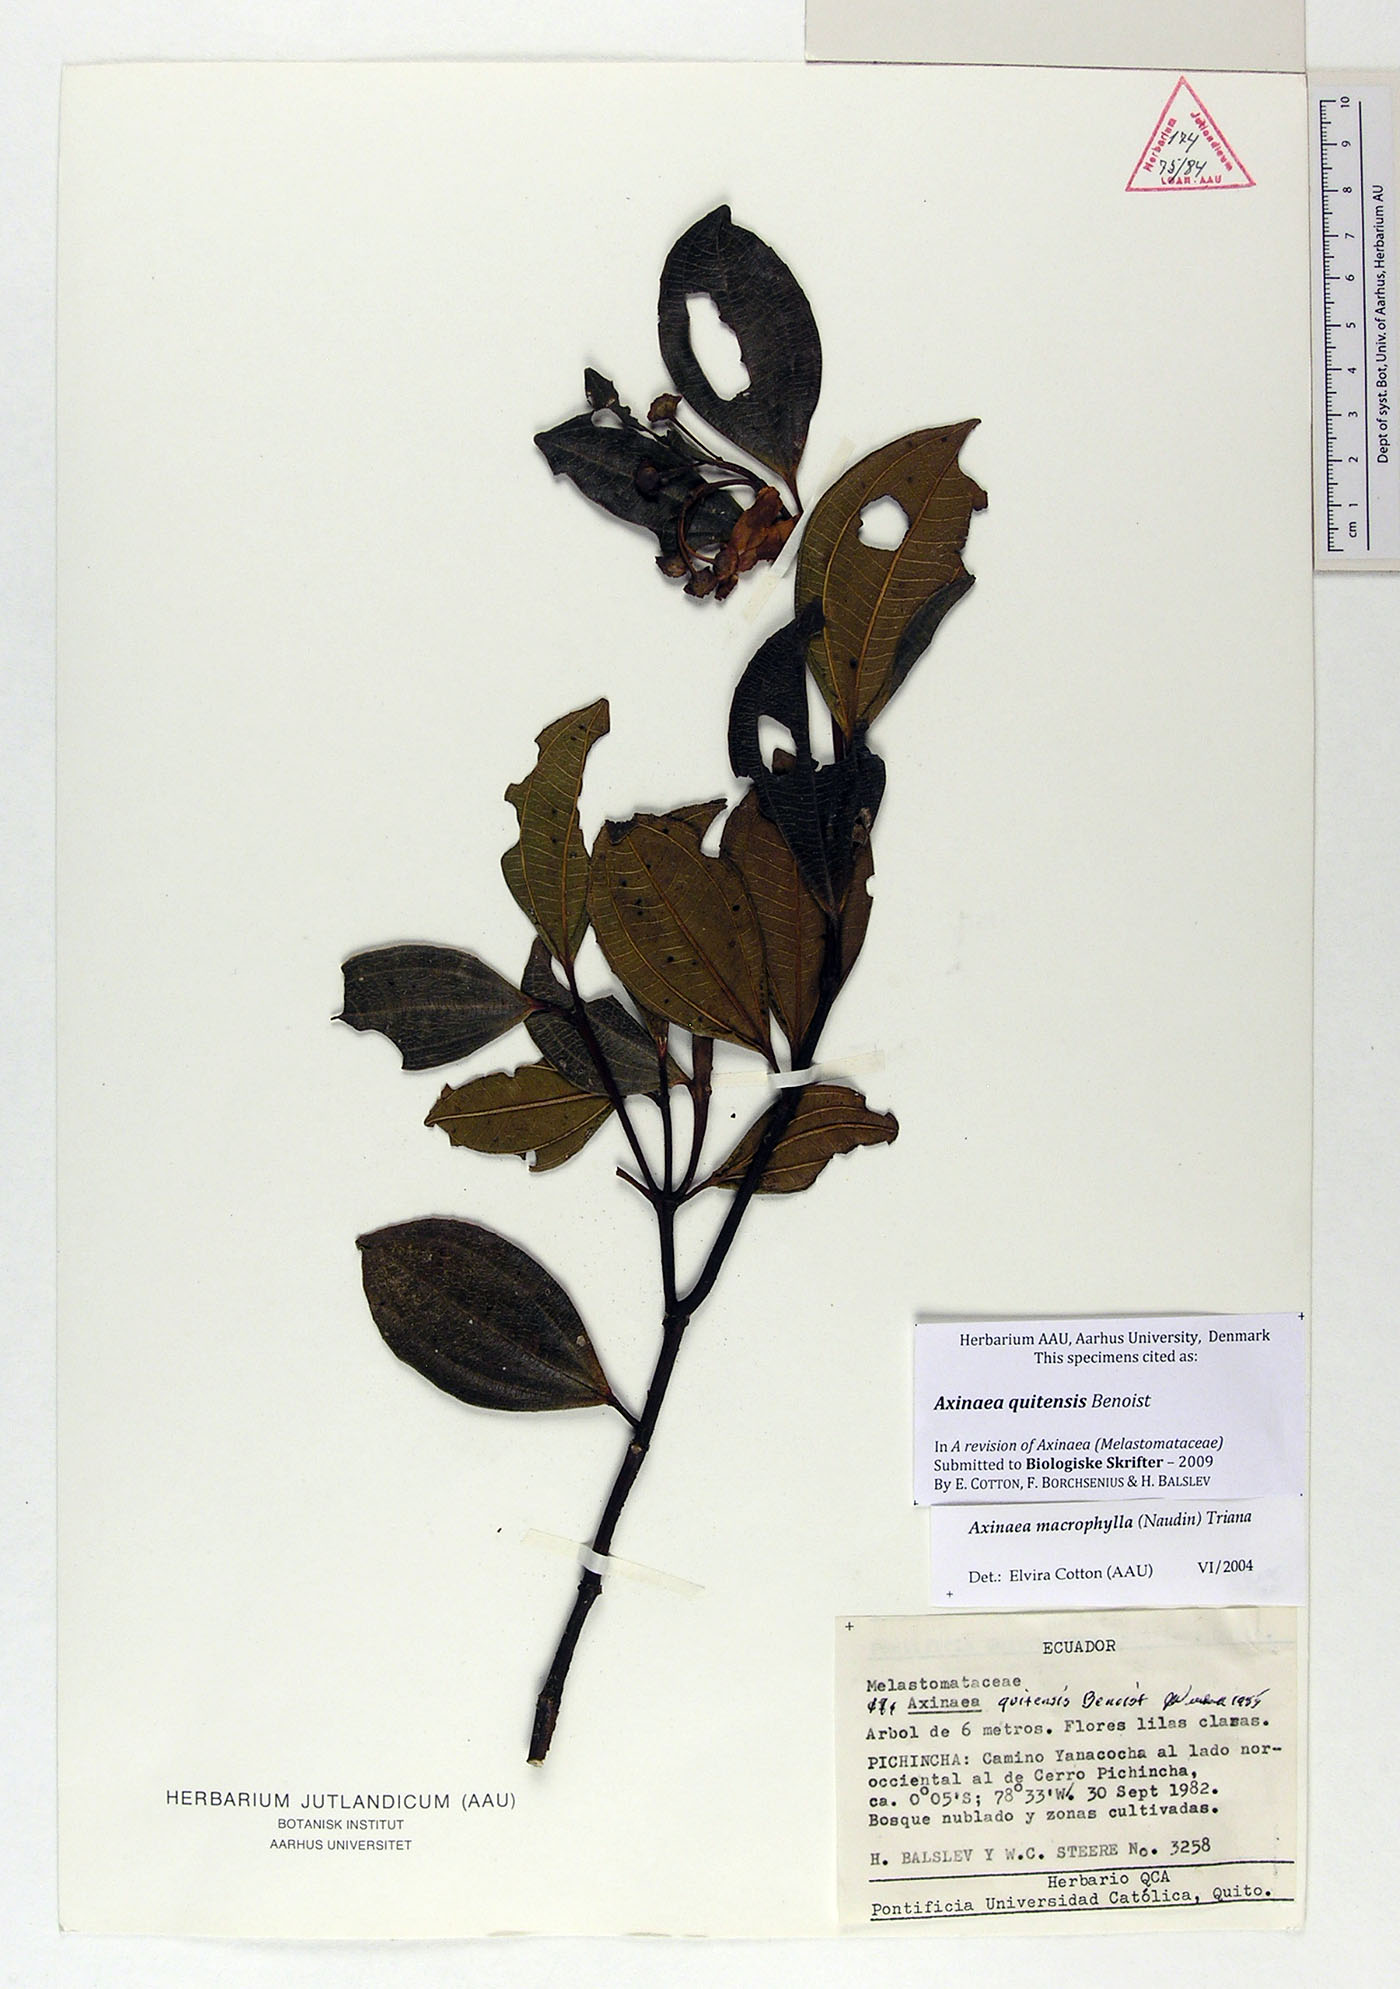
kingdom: Plantae
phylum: Tracheophyta
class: Magnoliopsida
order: Myrtales
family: Melastomataceae
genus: Axinaea
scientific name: Axinaea quitensis
